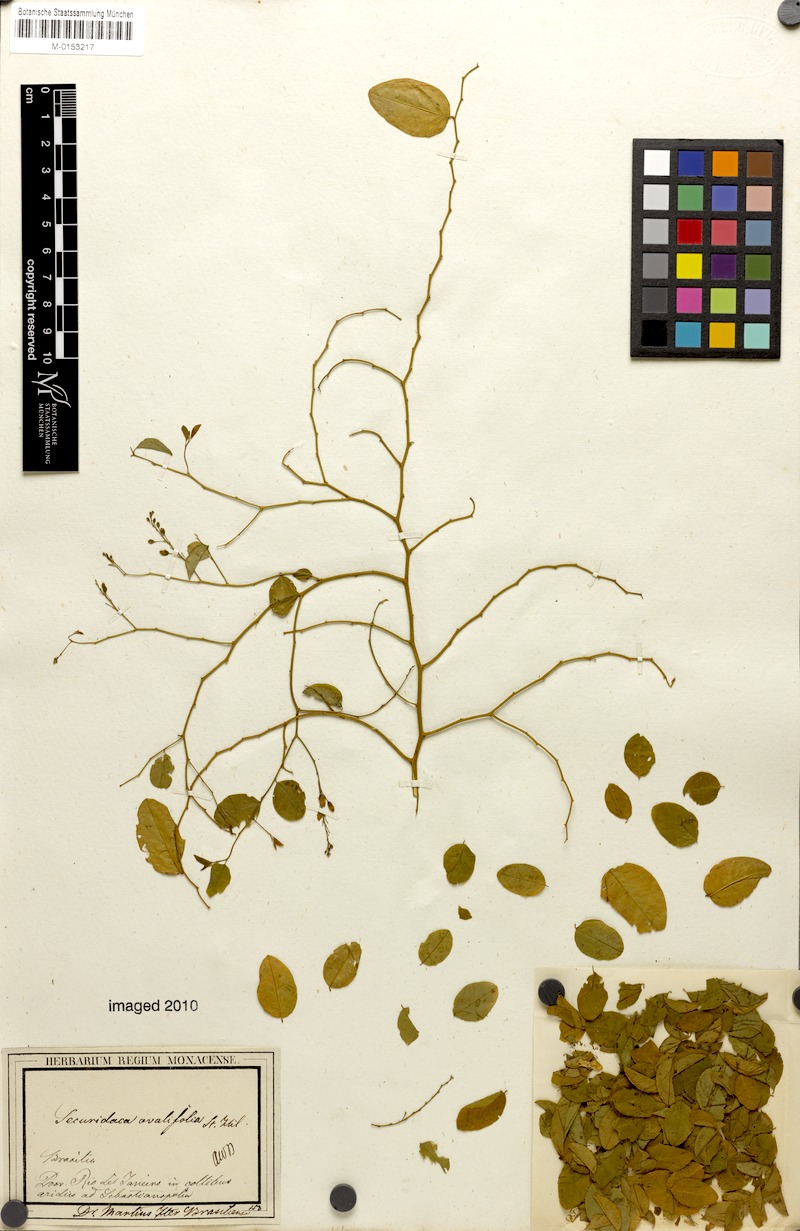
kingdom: Plantae
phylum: Tracheophyta
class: Magnoliopsida
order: Fabales
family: Polygalaceae
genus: Securidaca
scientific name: Securidaca ovalifolia
